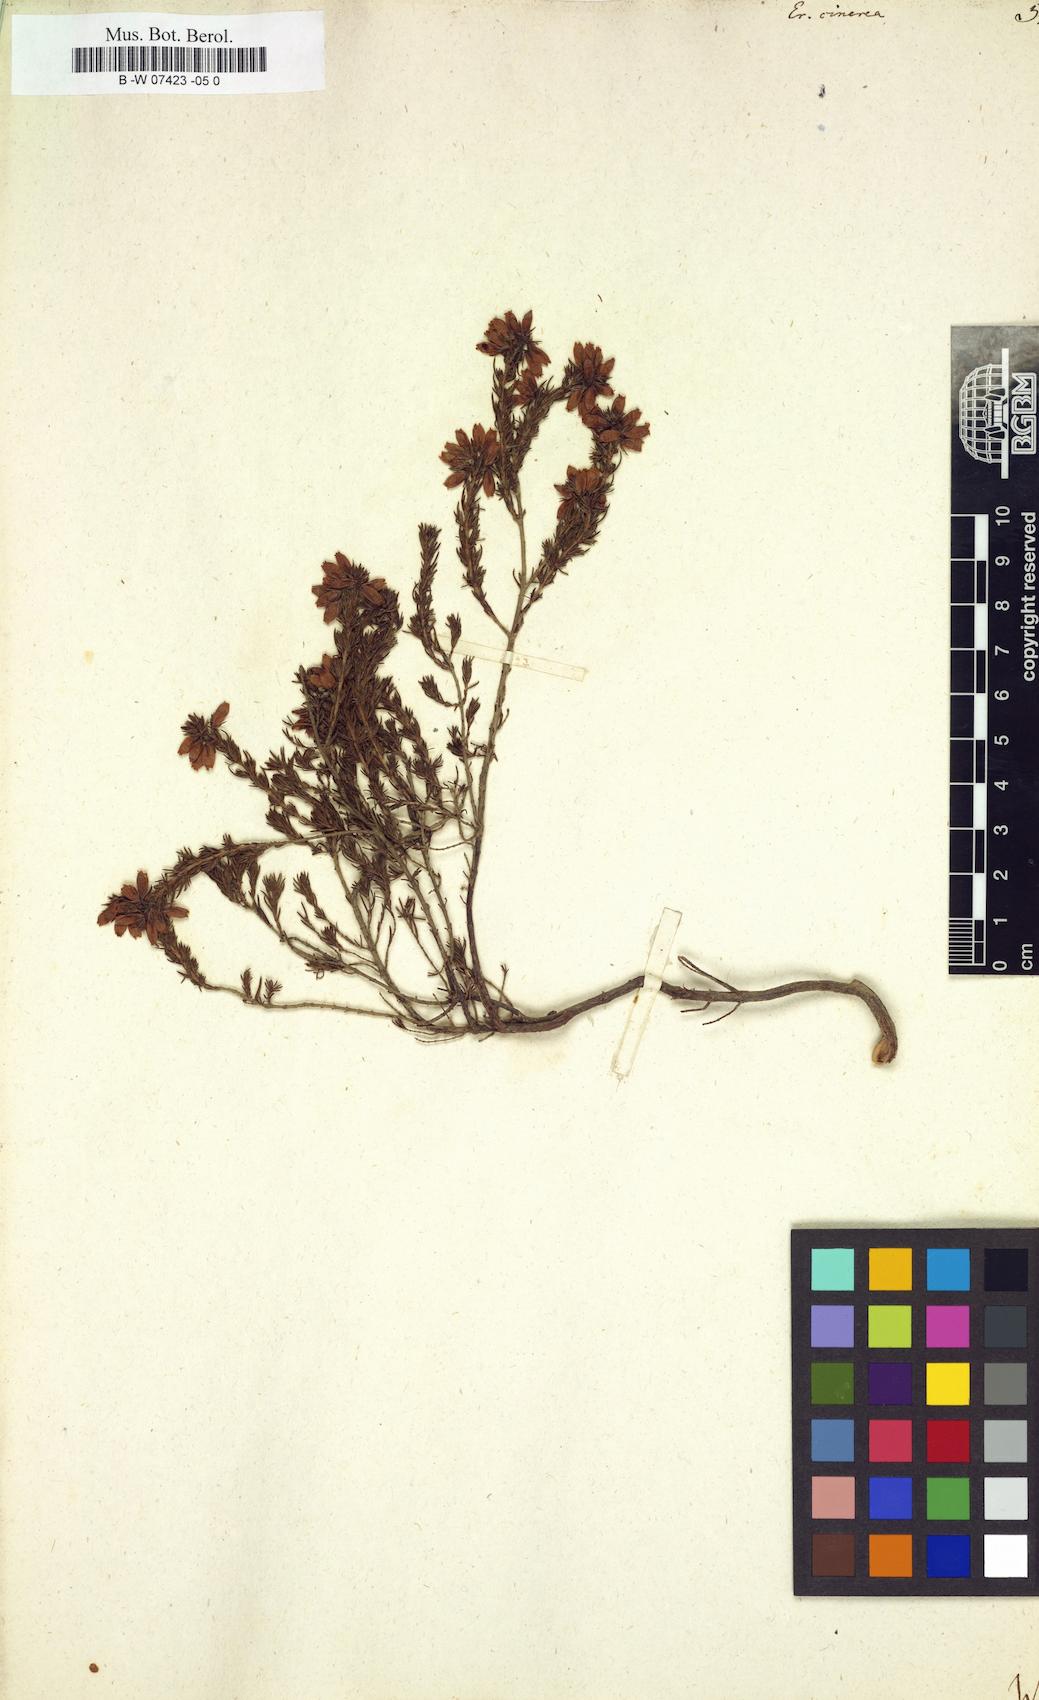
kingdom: Plantae
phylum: Tracheophyta
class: Magnoliopsida
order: Ericales
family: Ericaceae
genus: Erica
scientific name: Erica cinerea
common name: Bell heather
